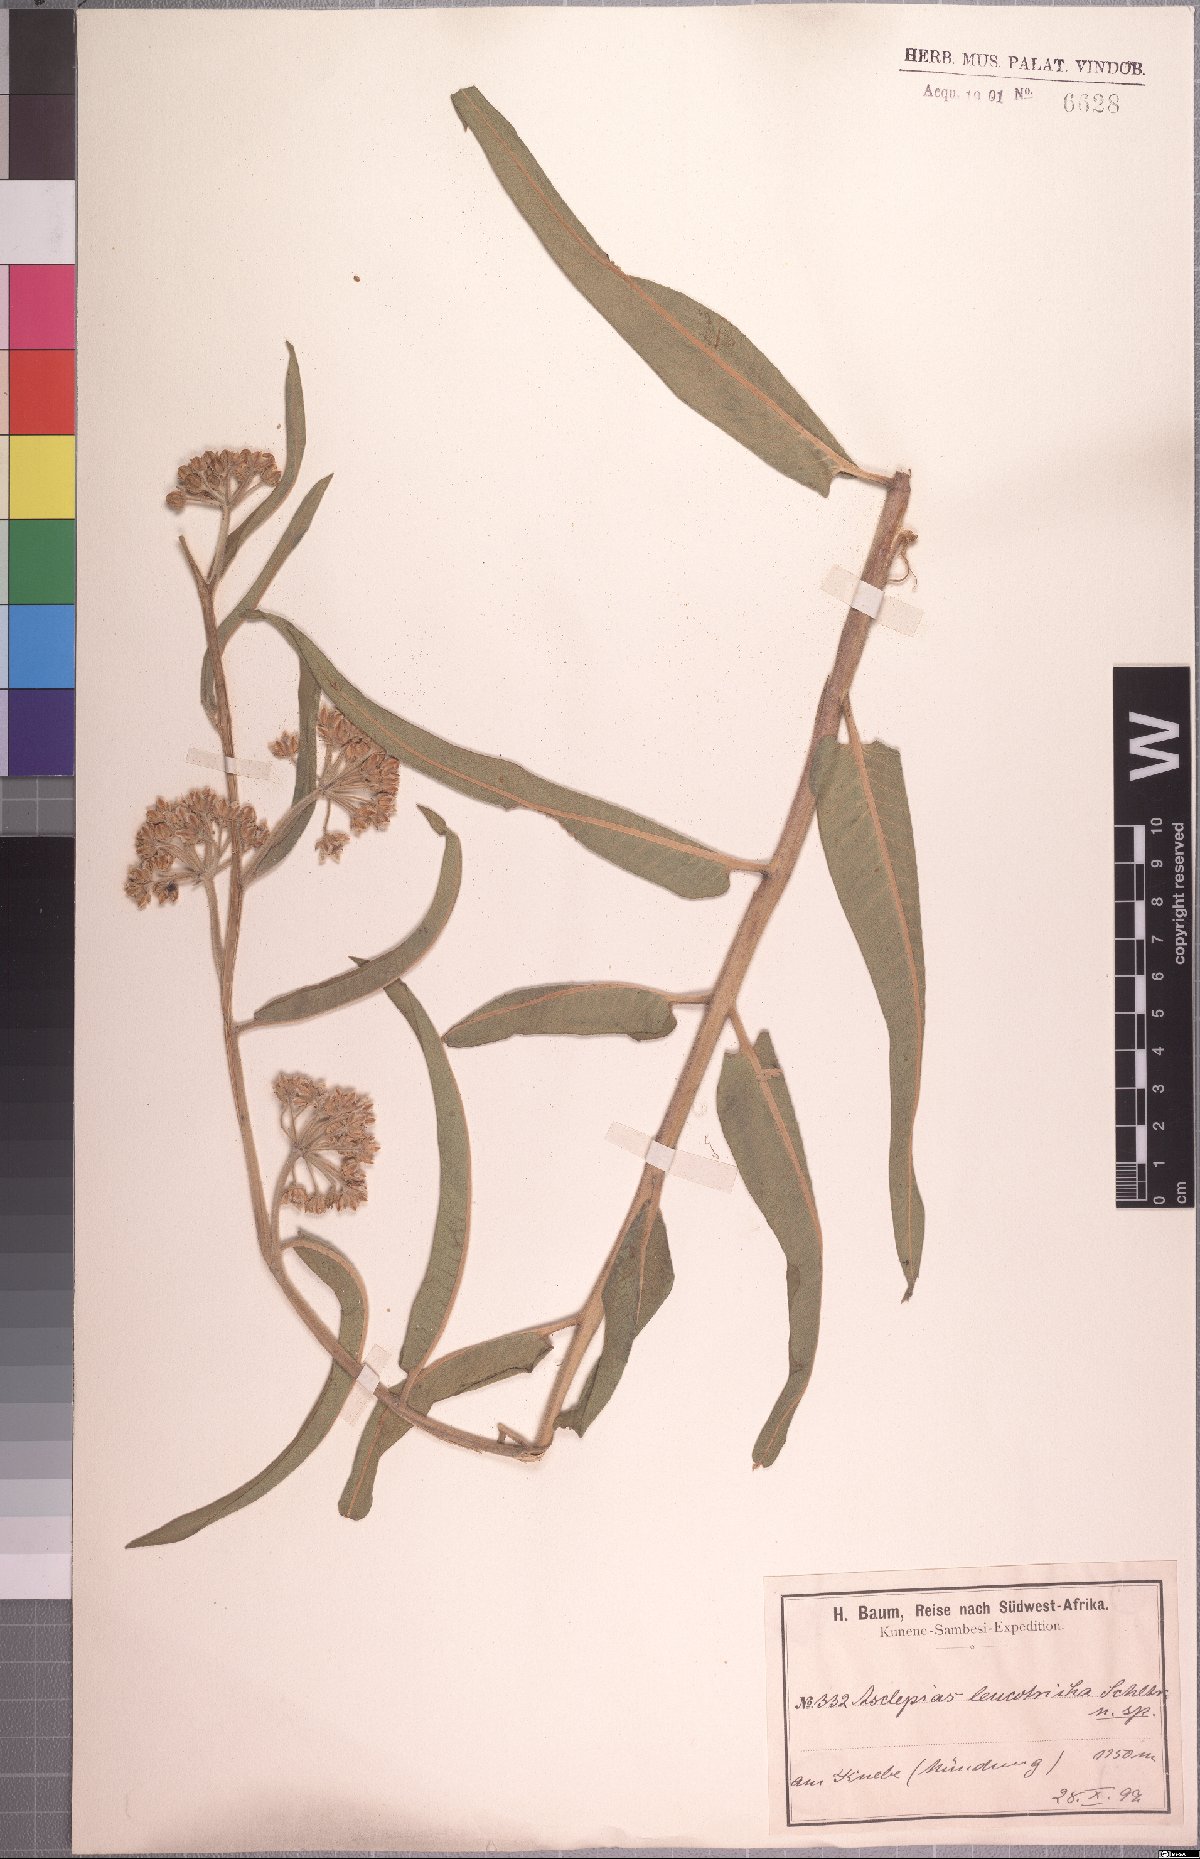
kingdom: Plantae
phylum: Tracheophyta
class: Magnoliopsida
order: Gentianales
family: Apocynaceae
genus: Xysmalobium
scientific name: Xysmalobium undulatum
